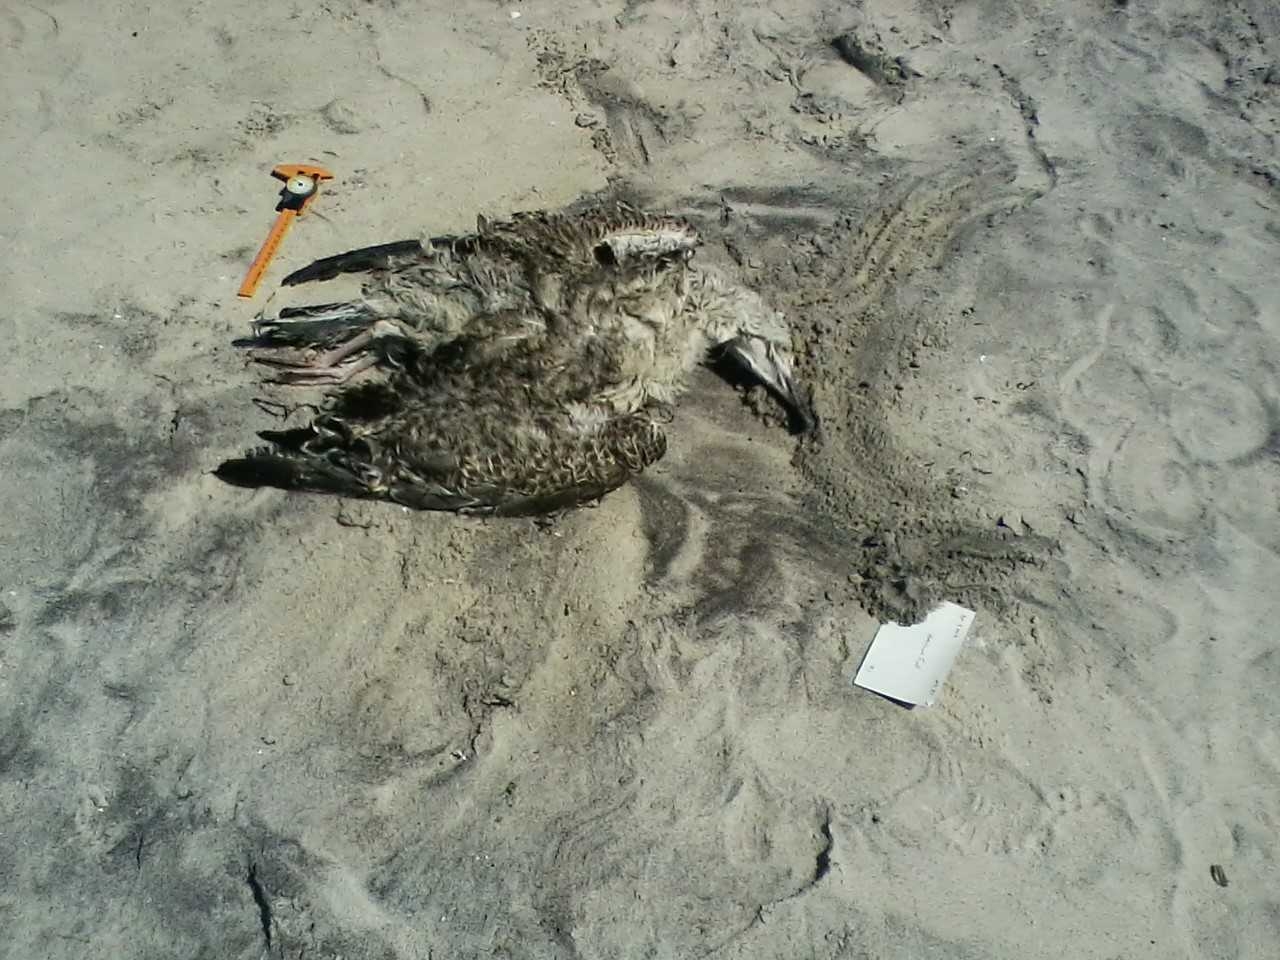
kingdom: Animalia
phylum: Chordata
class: Aves
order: Charadriiformes
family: Laridae
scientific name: Laridae
